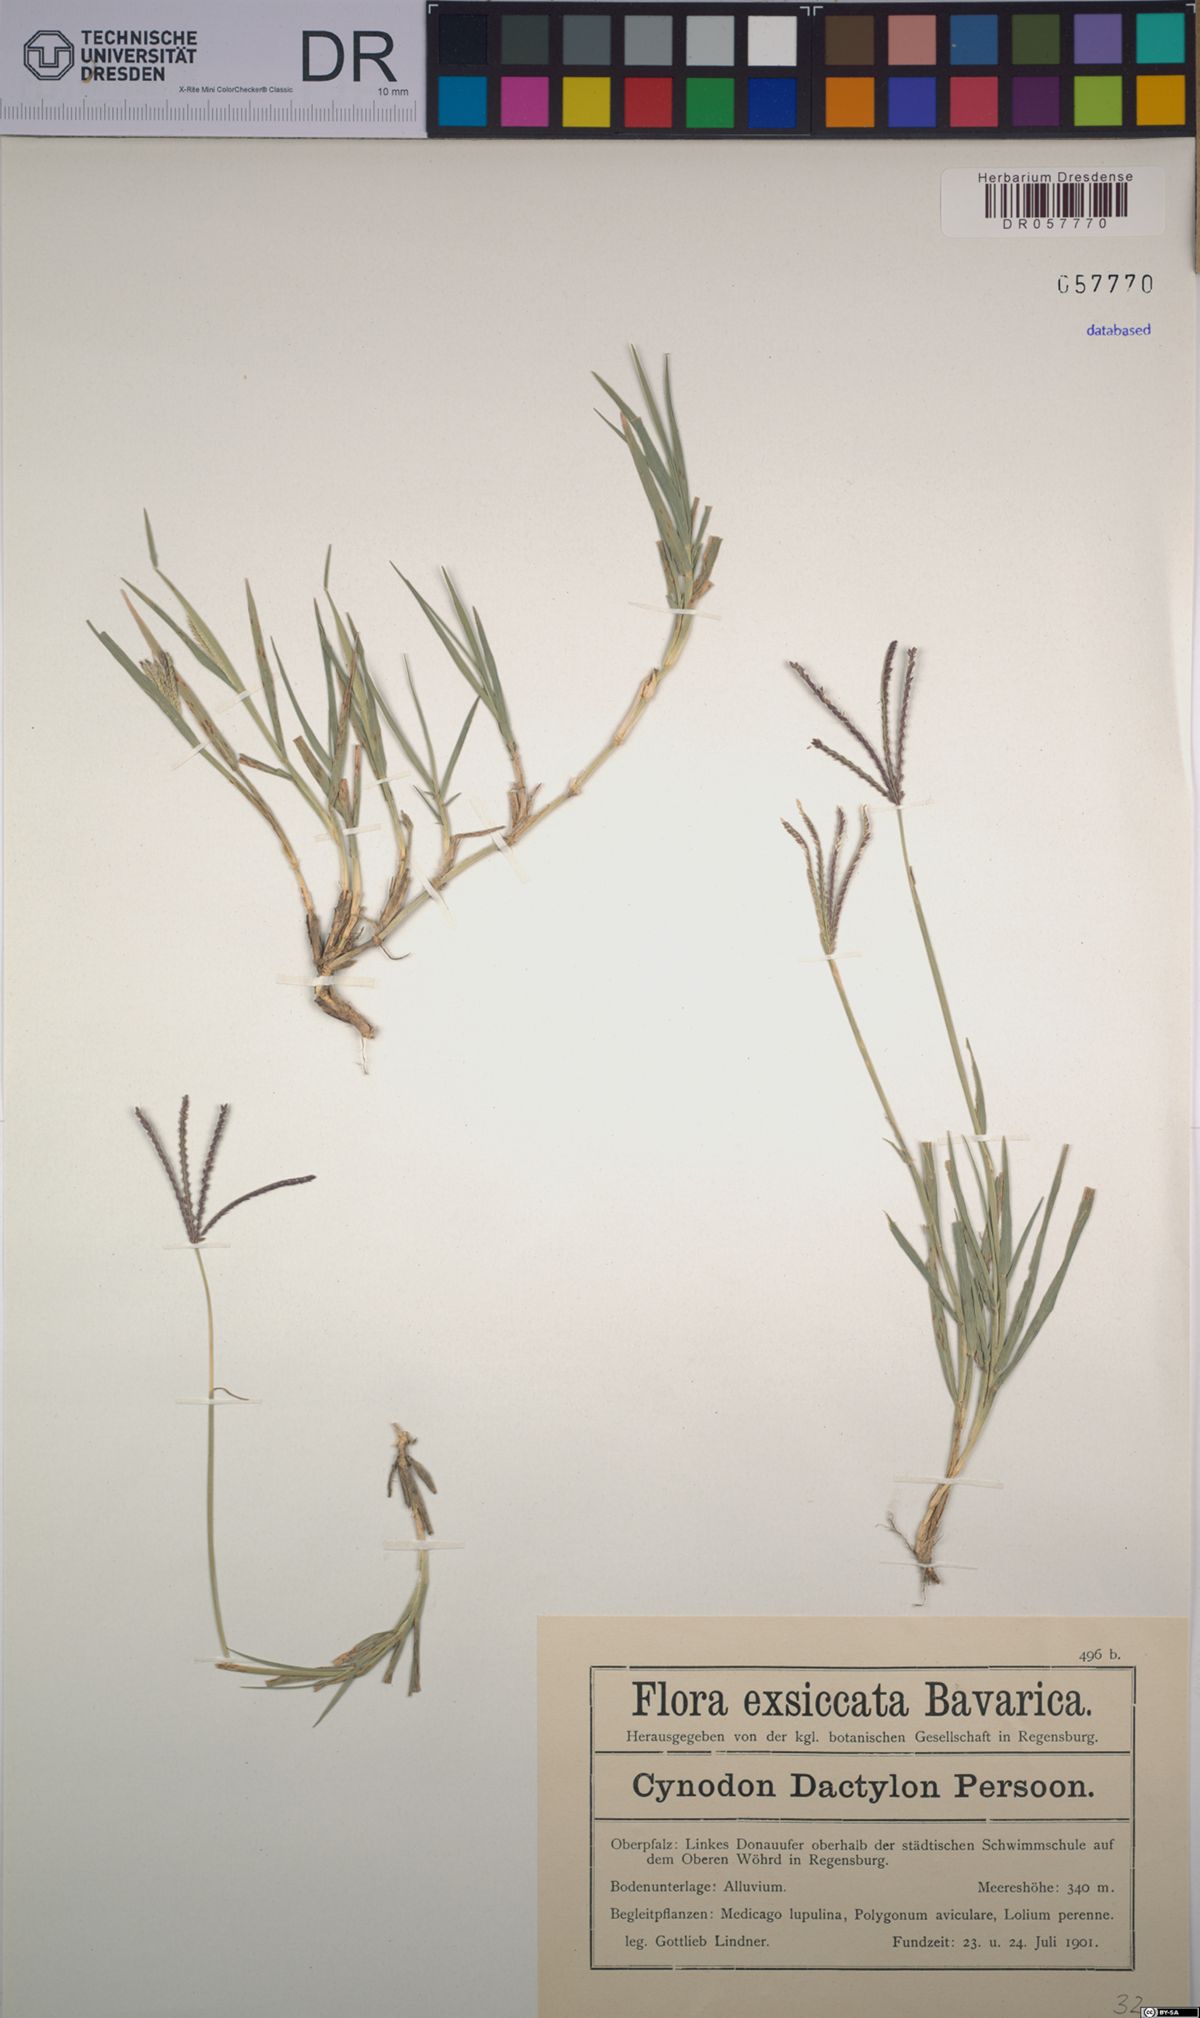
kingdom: Plantae
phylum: Tracheophyta
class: Liliopsida
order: Poales
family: Poaceae
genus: Cynodon
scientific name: Cynodon dactylon
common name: Bermuda grass
